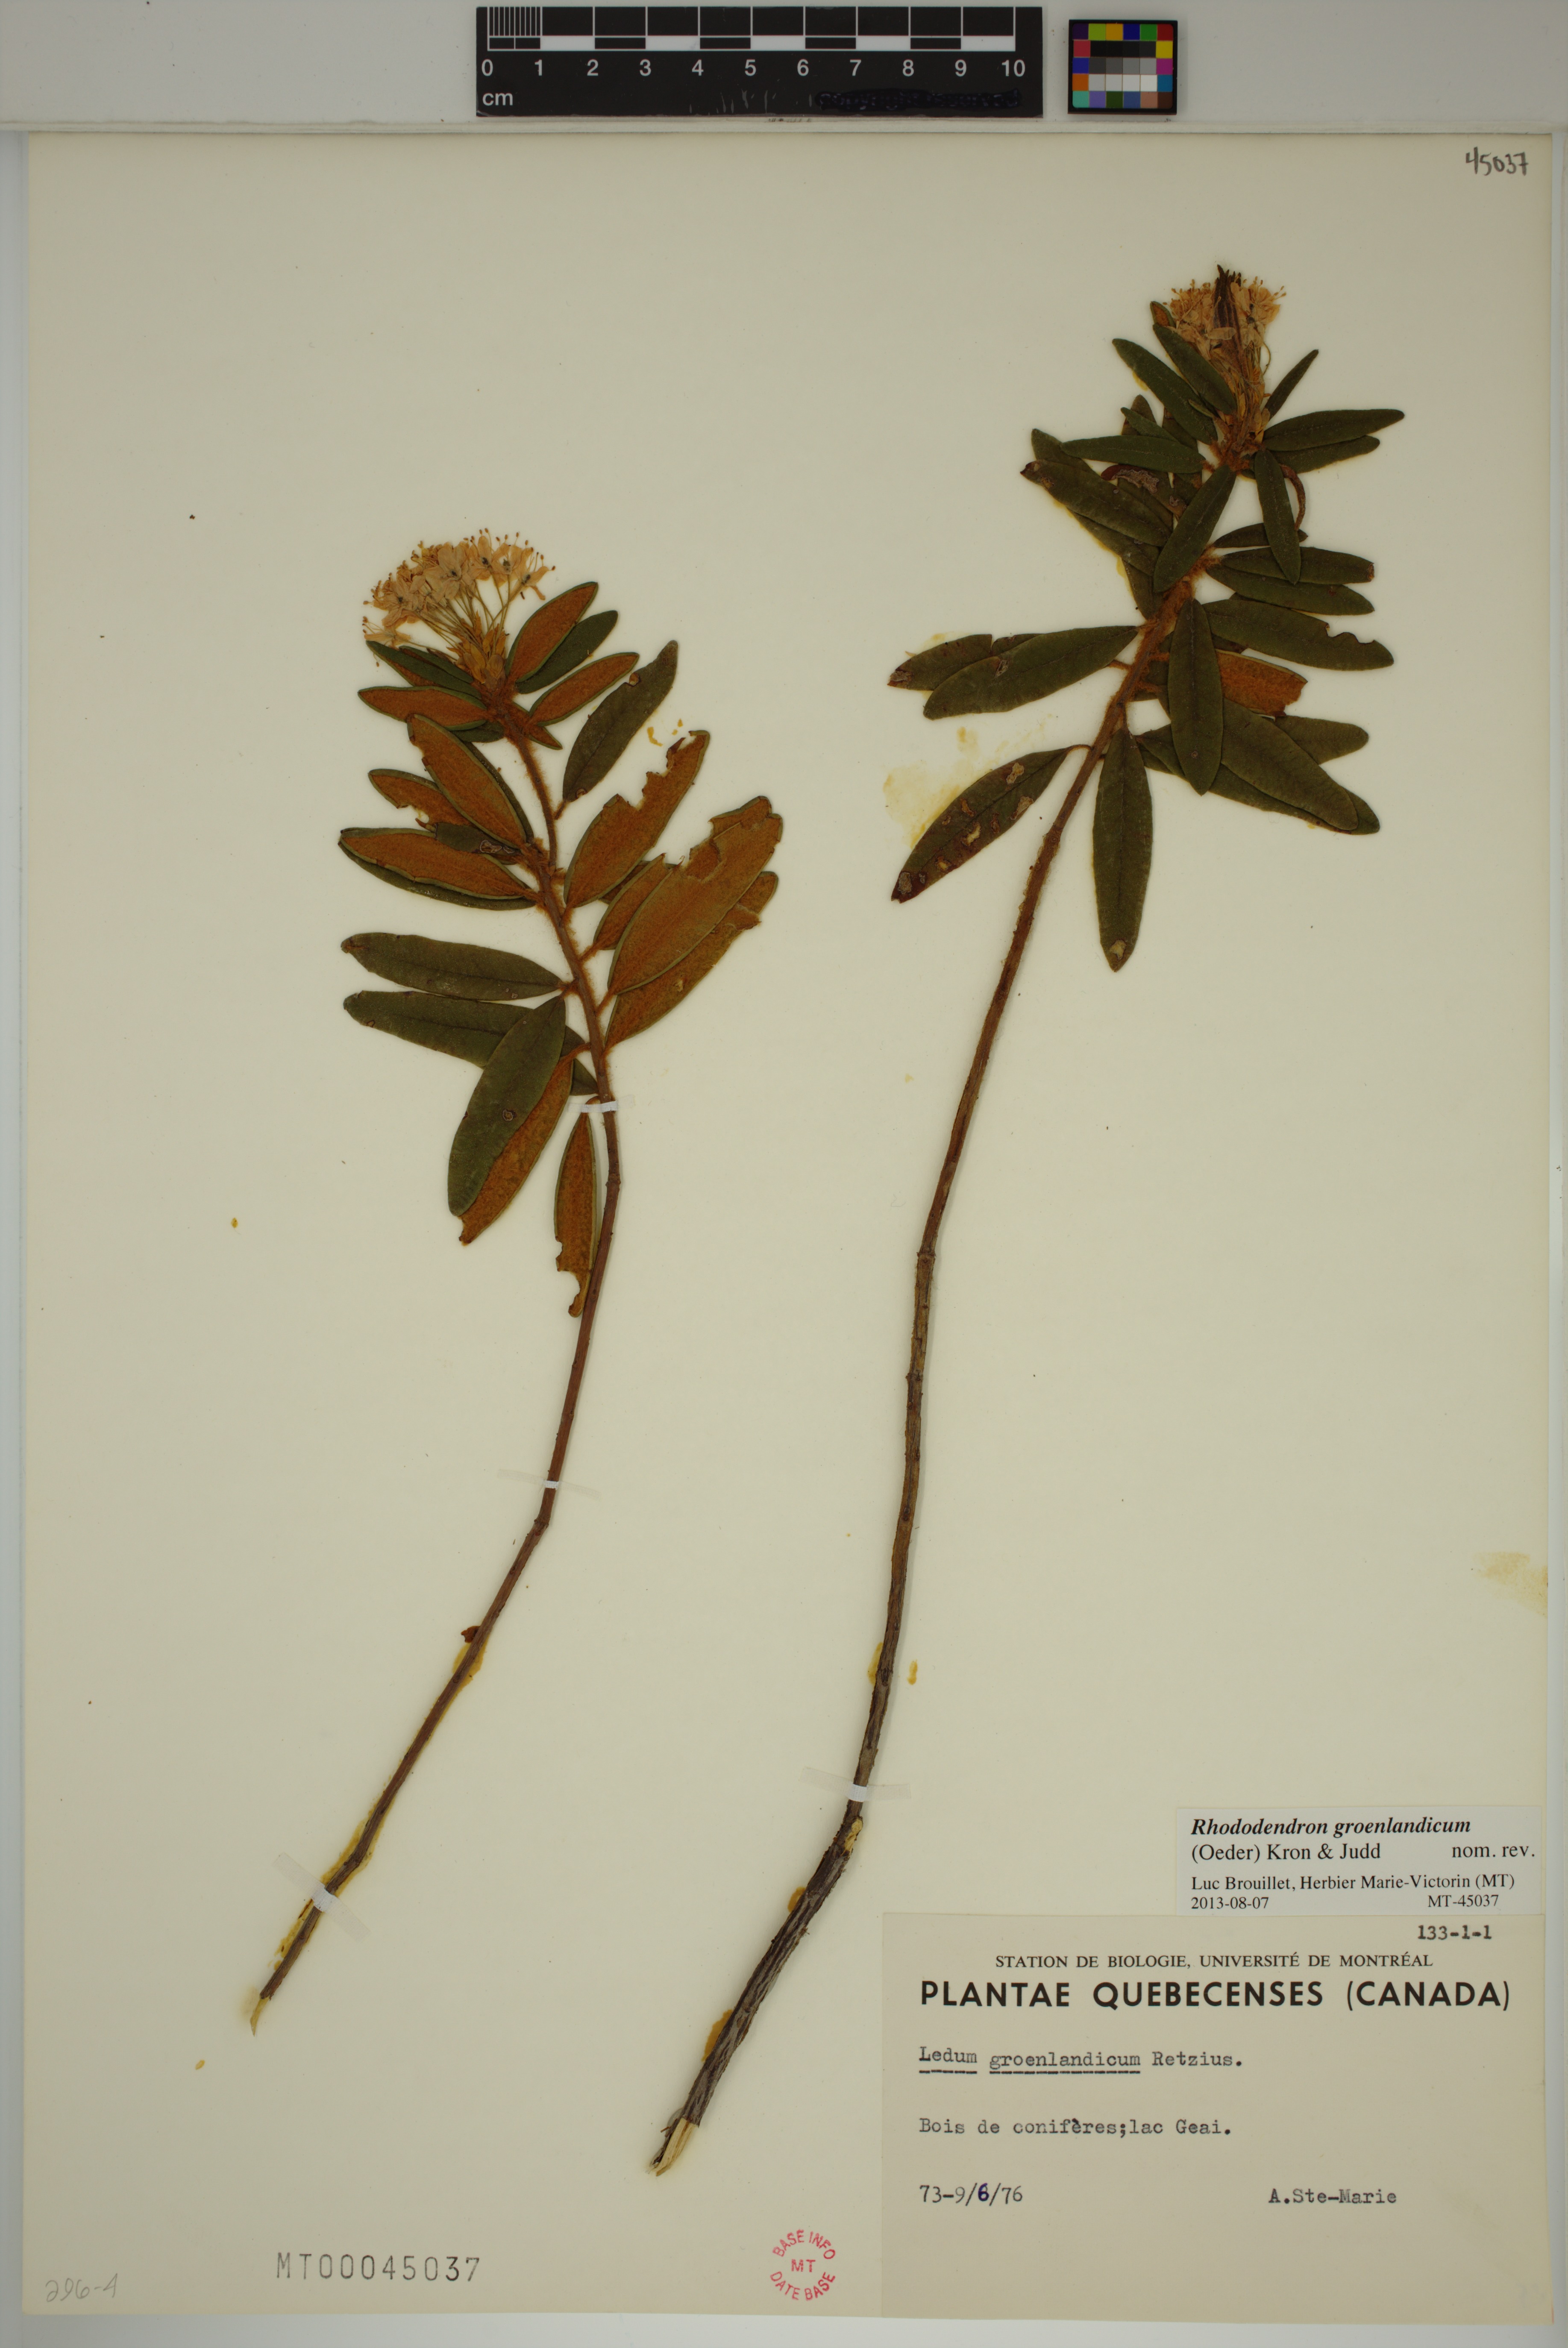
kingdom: Plantae
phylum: Tracheophyta
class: Magnoliopsida
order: Ericales
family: Ericaceae
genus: Rhododendron
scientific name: Rhododendron groenlandicum
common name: Bog labrador tea
